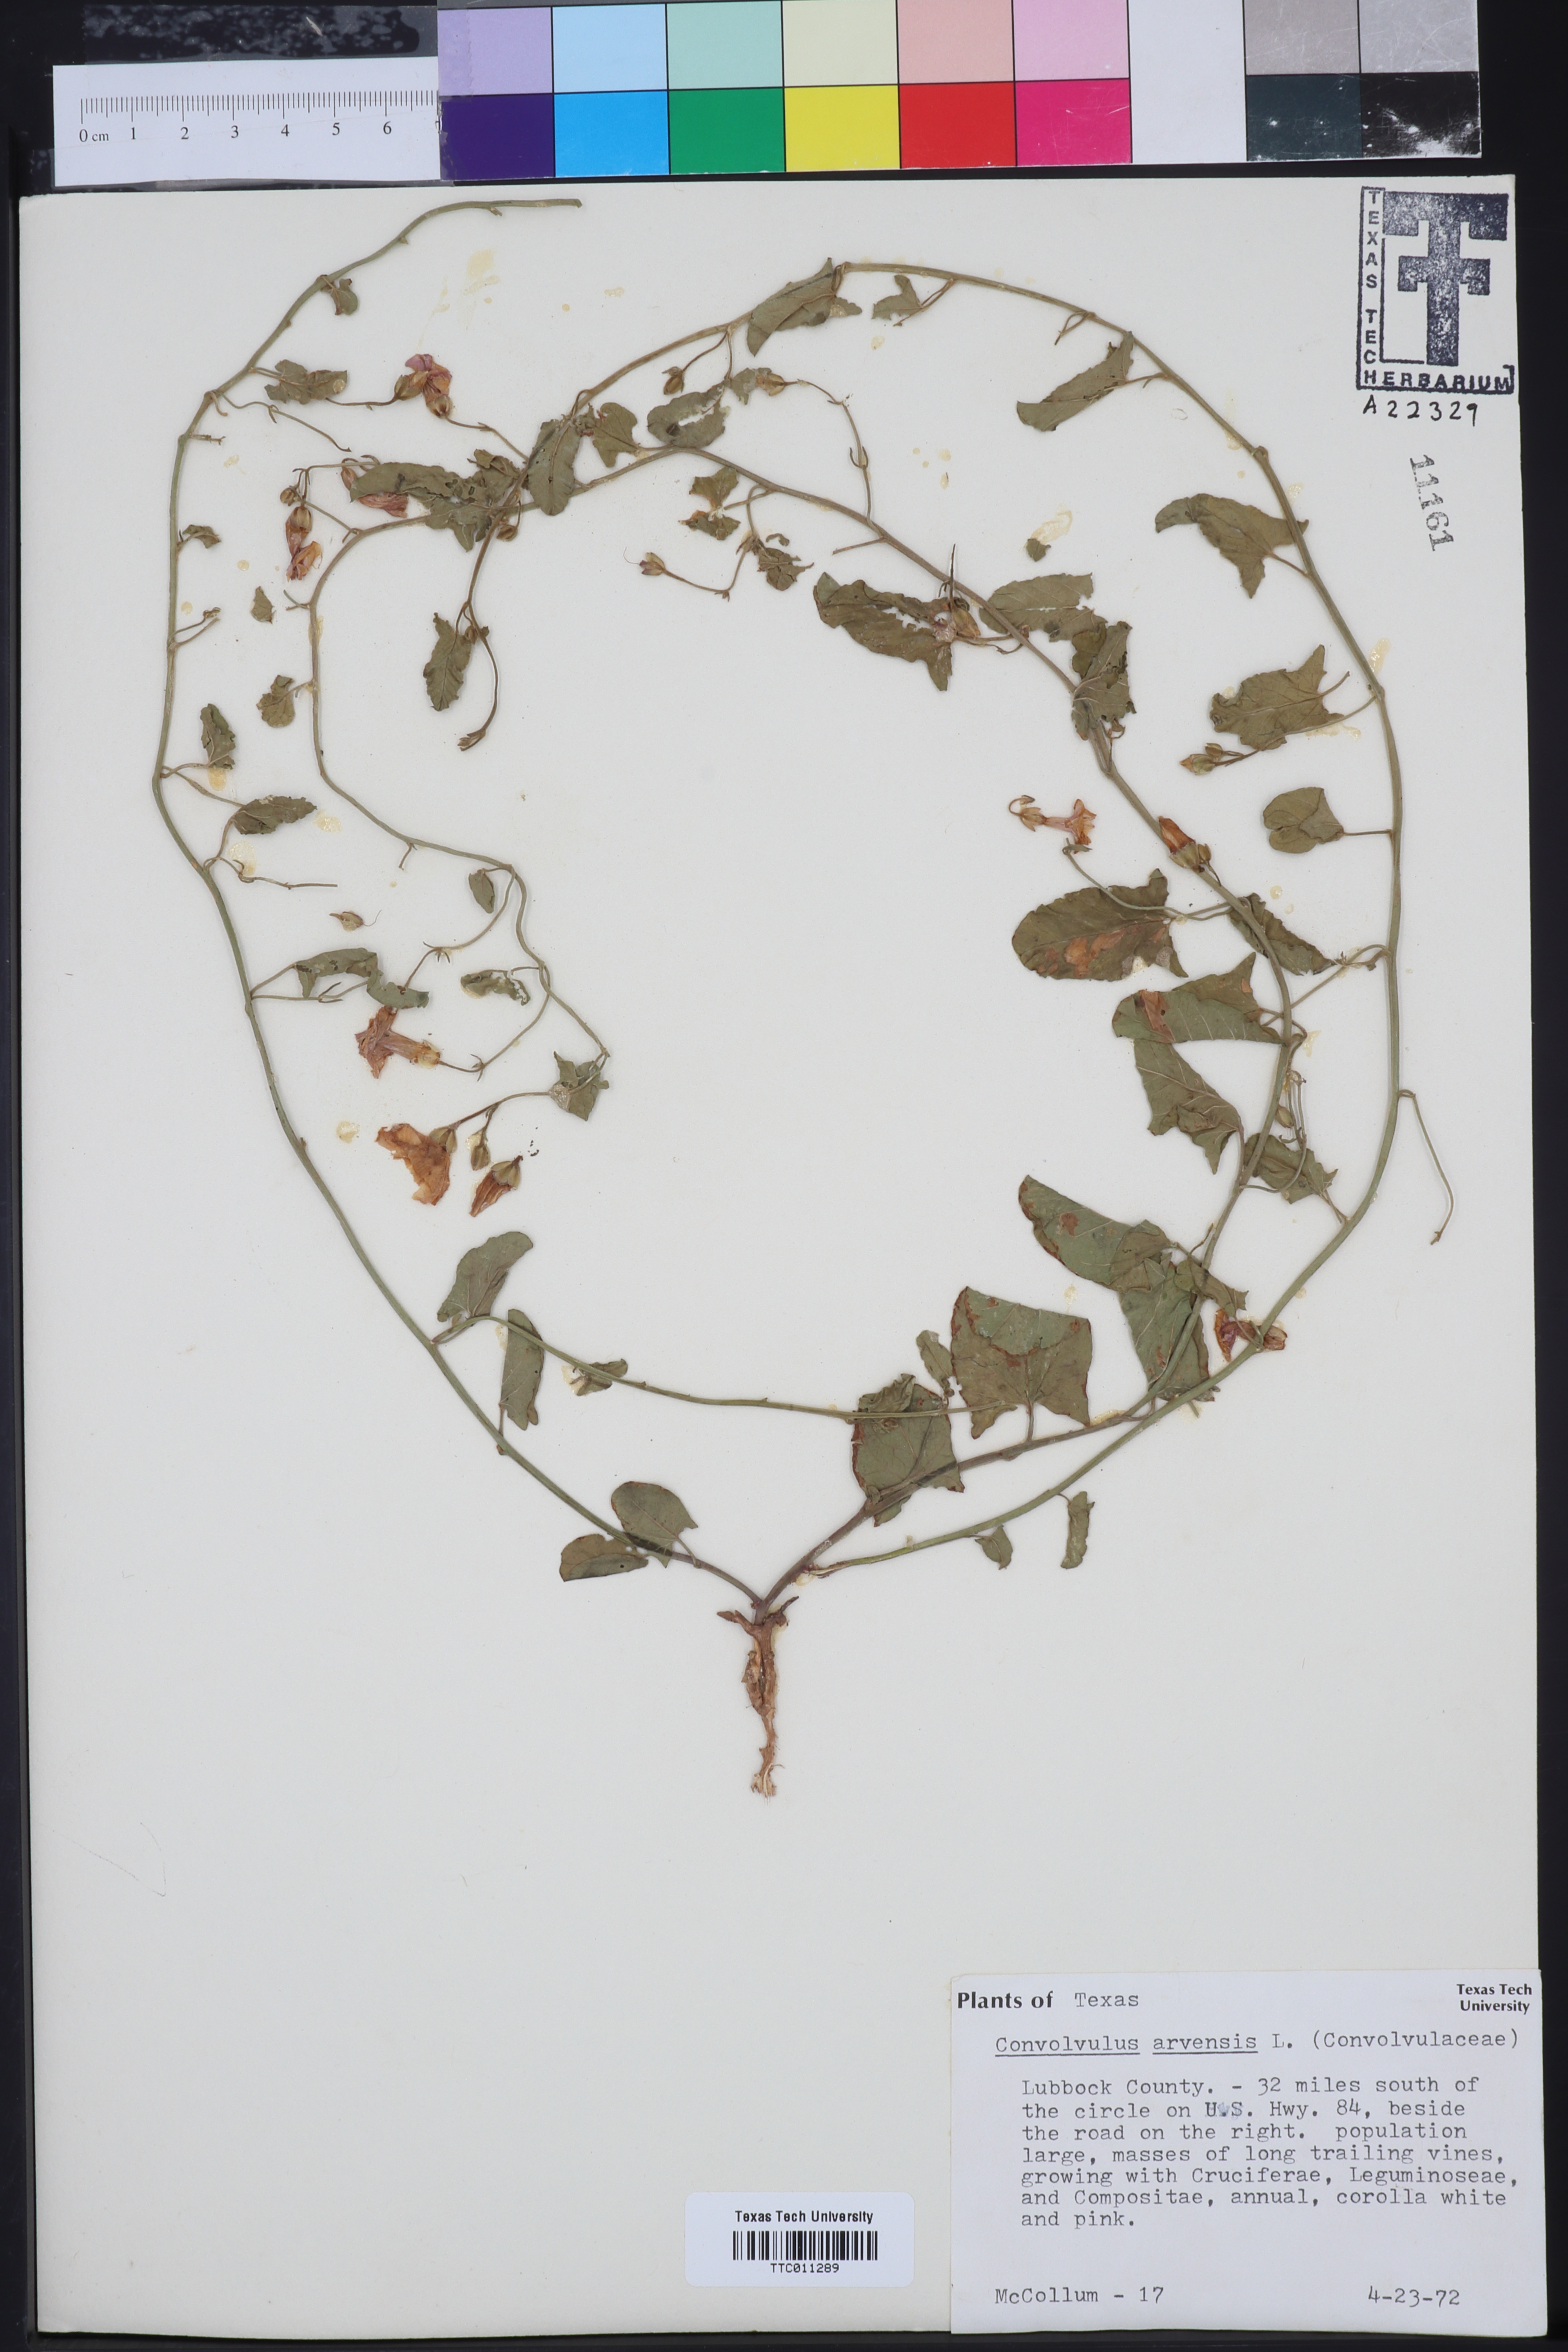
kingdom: Plantae
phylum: Tracheophyta
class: Magnoliopsida
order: Solanales
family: Convolvulaceae
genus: Convolvulus
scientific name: Convolvulus arvensis
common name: Field bindweed
